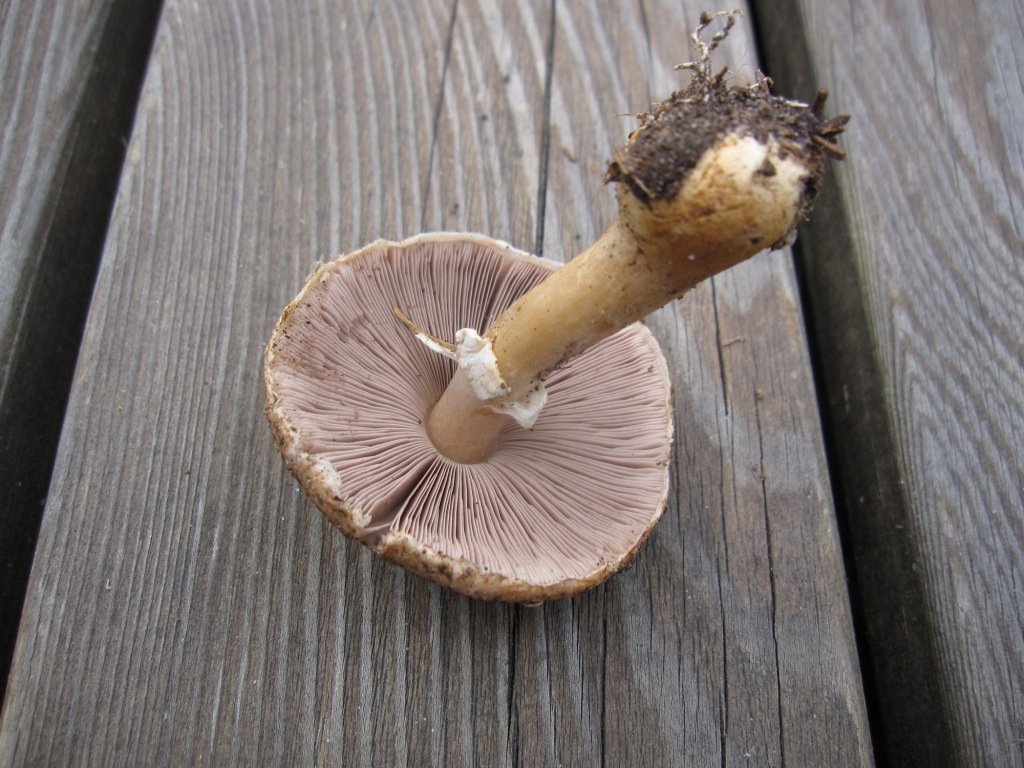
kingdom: Fungi
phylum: Basidiomycota
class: Agaricomycetes
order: Agaricales
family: Agaricaceae
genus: Agaricus
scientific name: Agaricus brunneolus
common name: purpur-champignon
